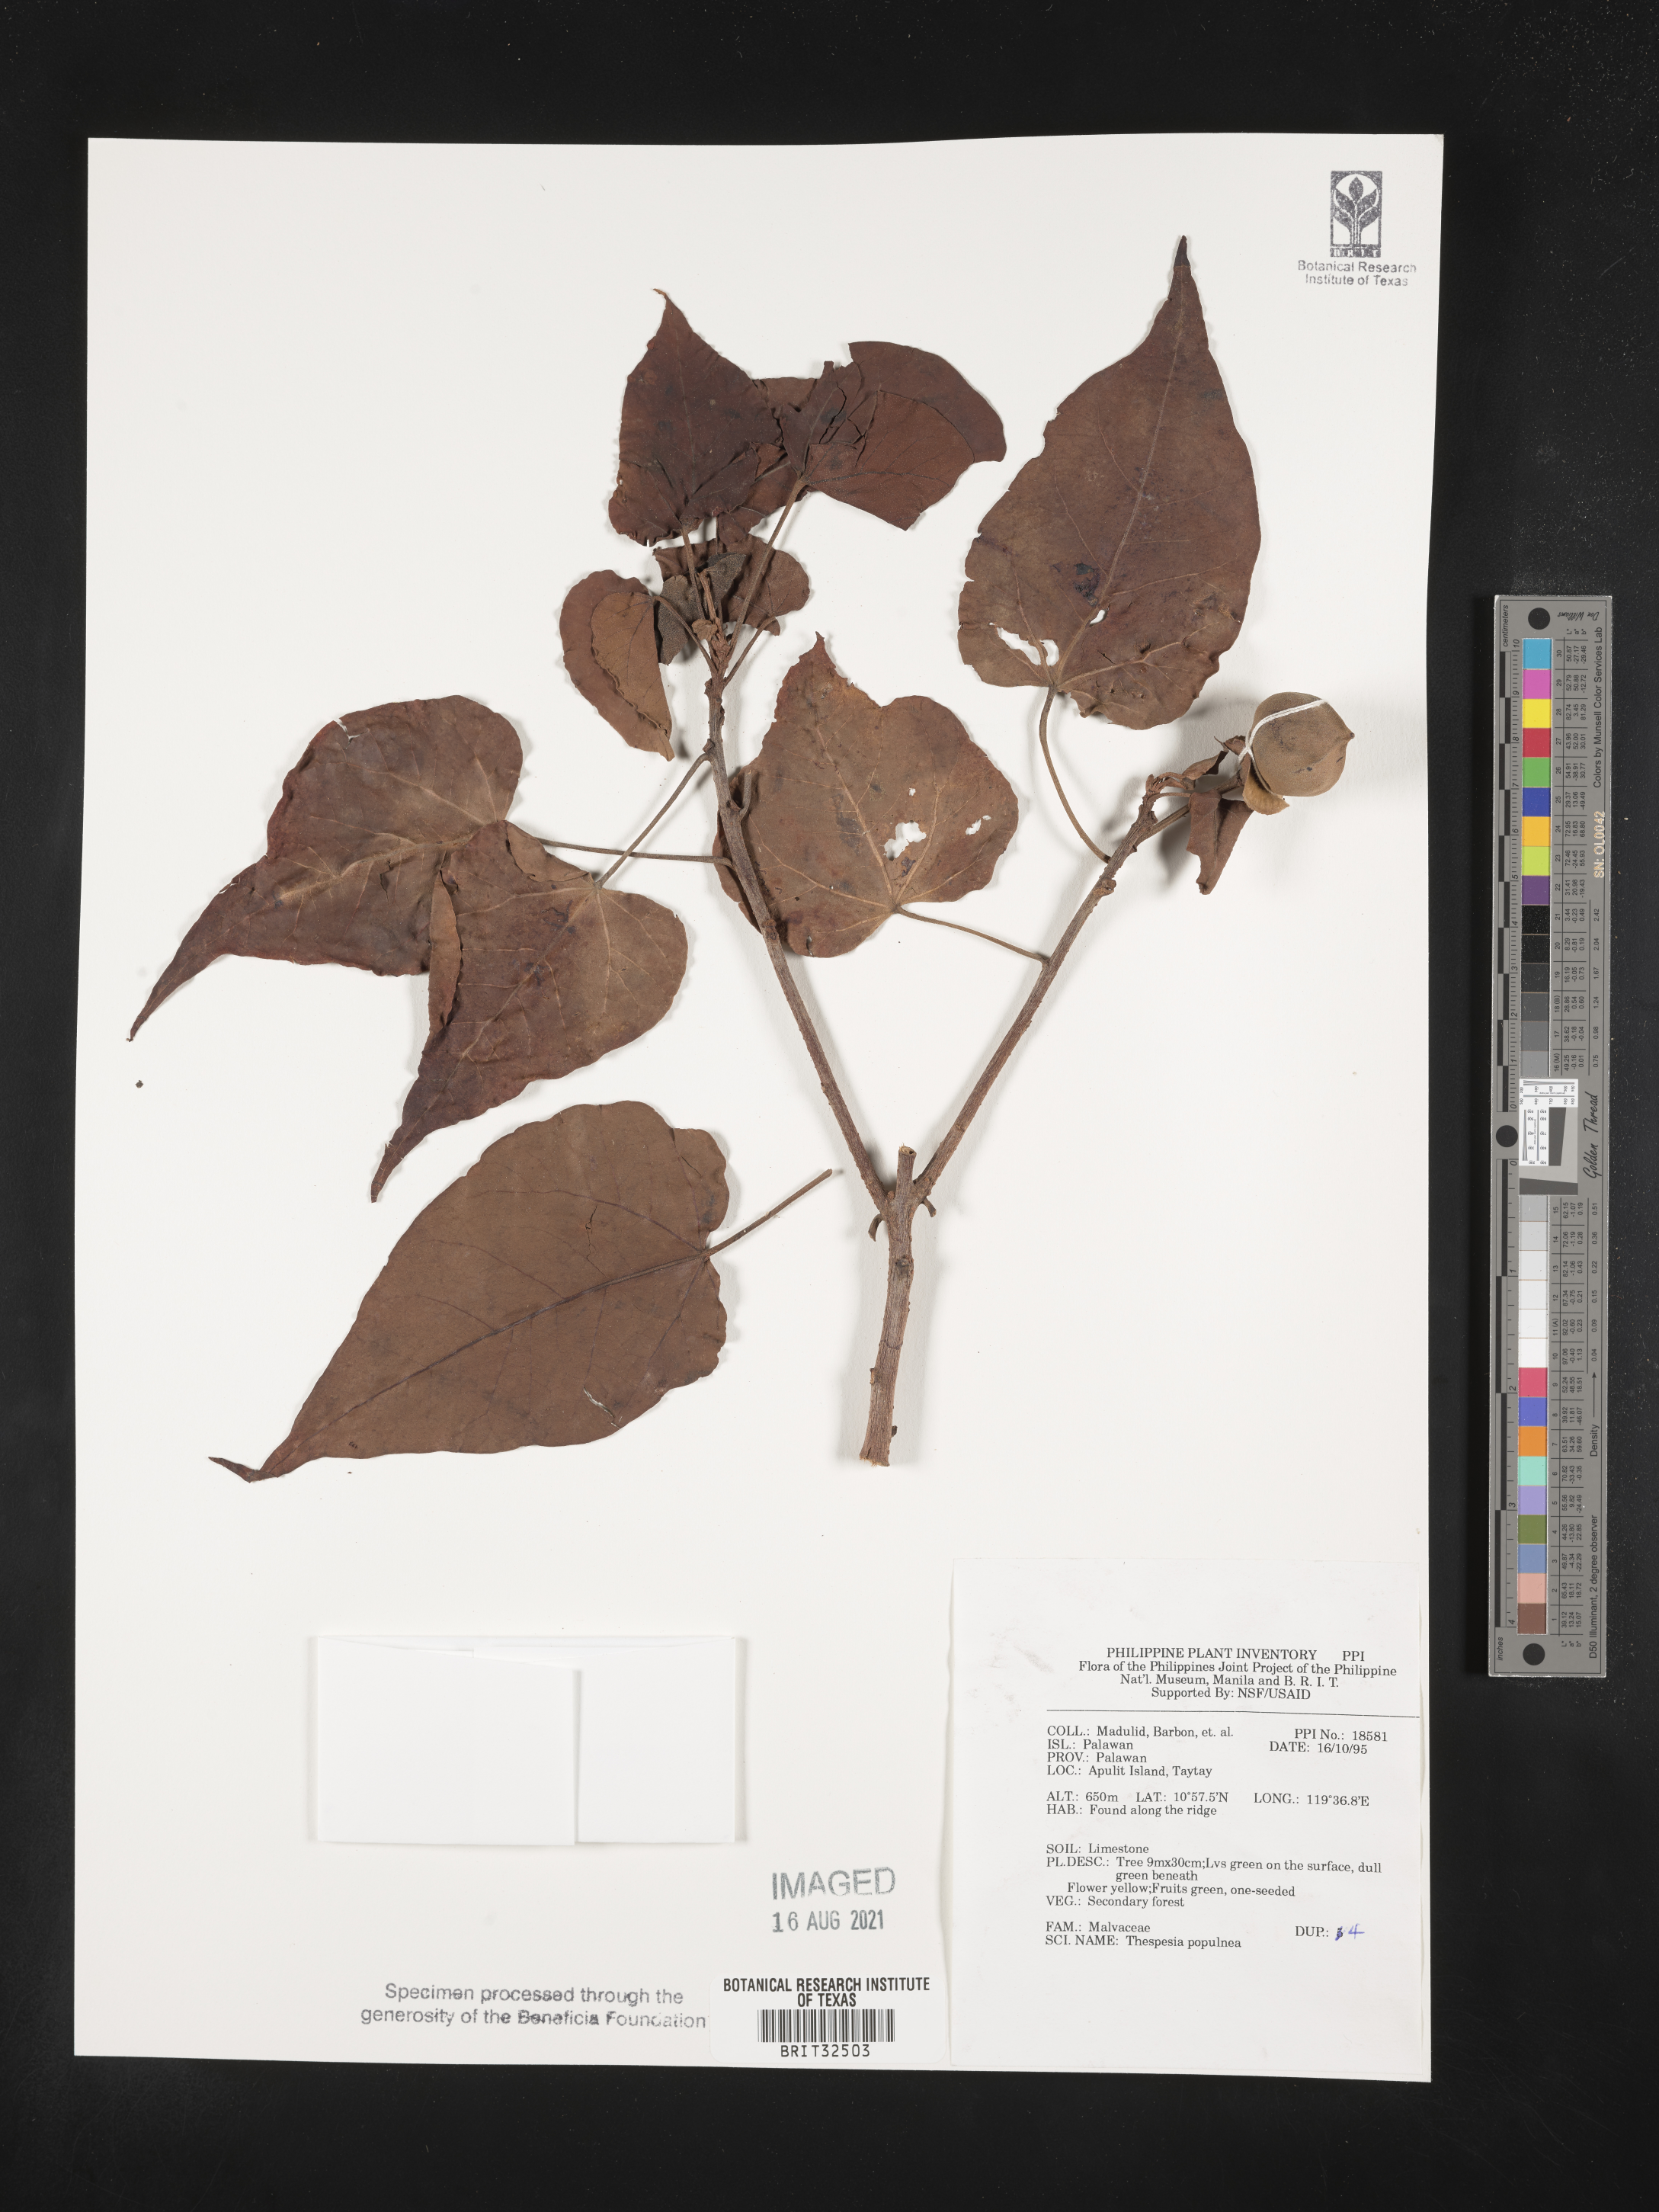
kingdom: Plantae
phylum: Tracheophyta
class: Magnoliopsida
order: Malvales
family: Malvaceae
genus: Thespesia
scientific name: Thespesia populnea
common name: Seaside mahoe
